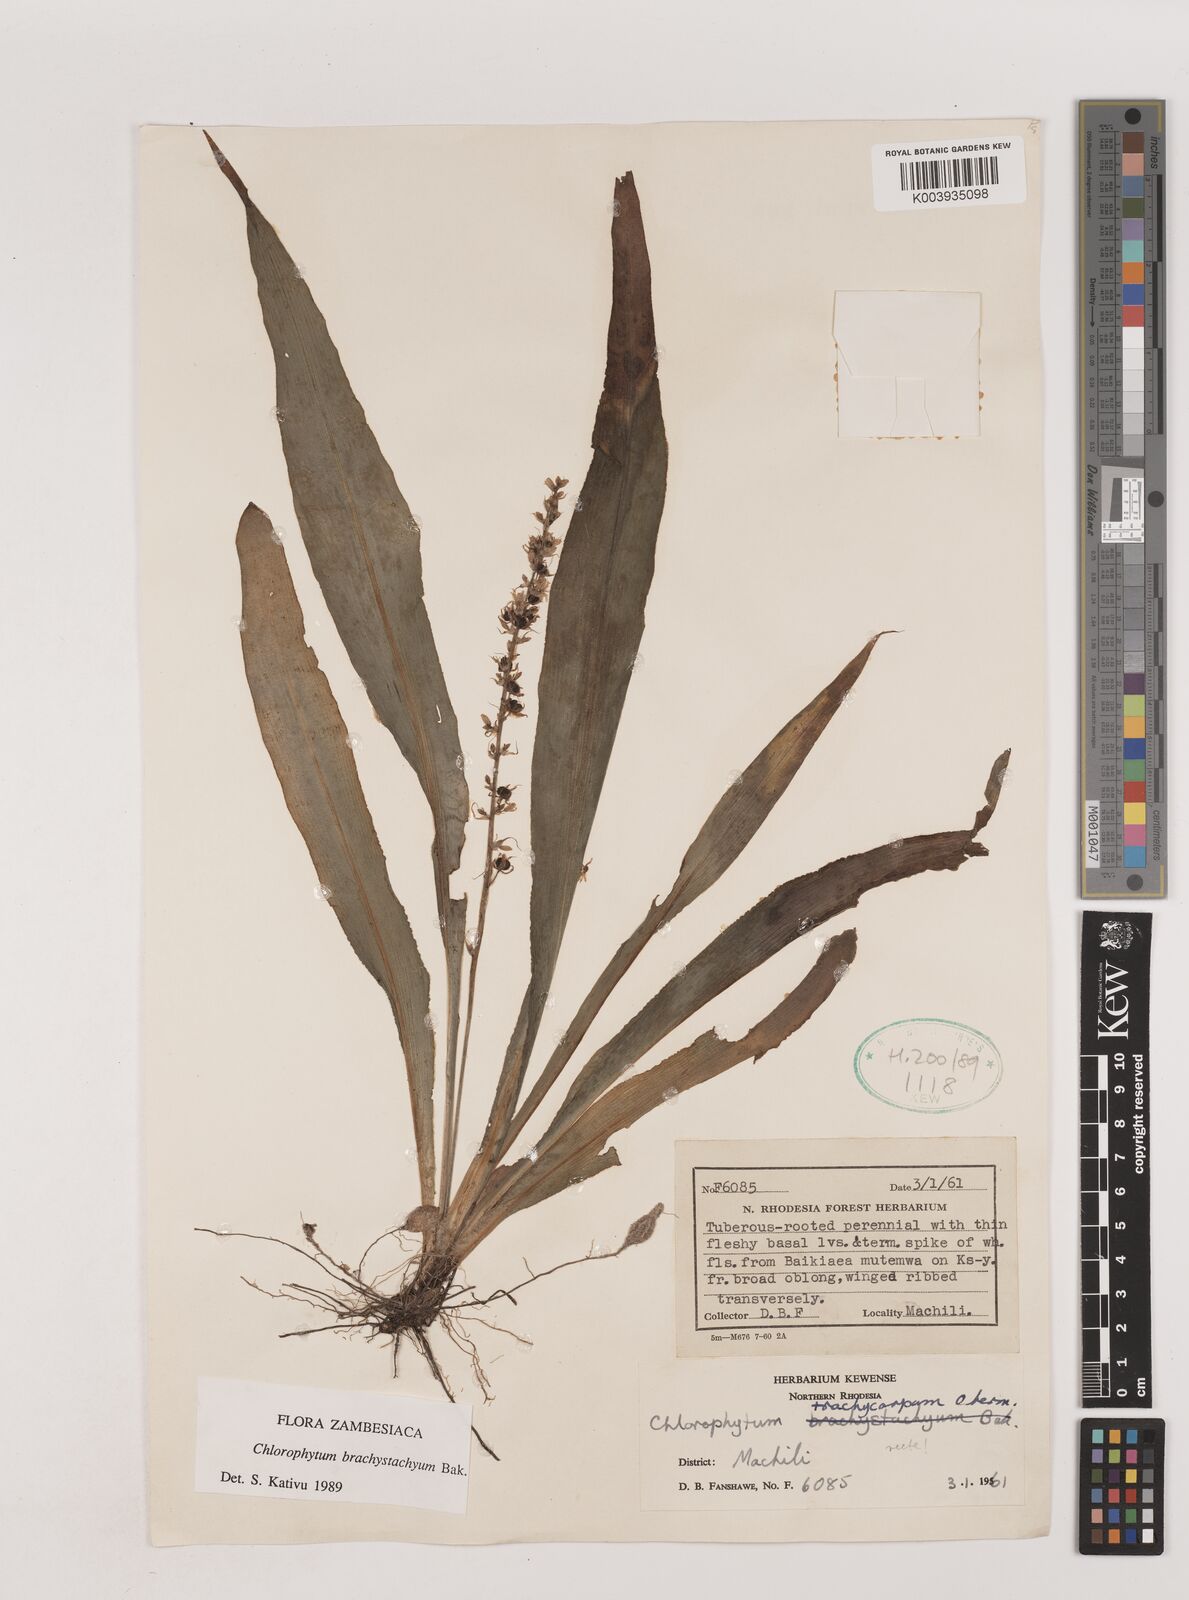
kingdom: Plantae
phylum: Tracheophyta
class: Liliopsida
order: Asparagales
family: Asparagaceae
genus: Chlorophytum
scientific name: Chlorophytum brachystachyum
